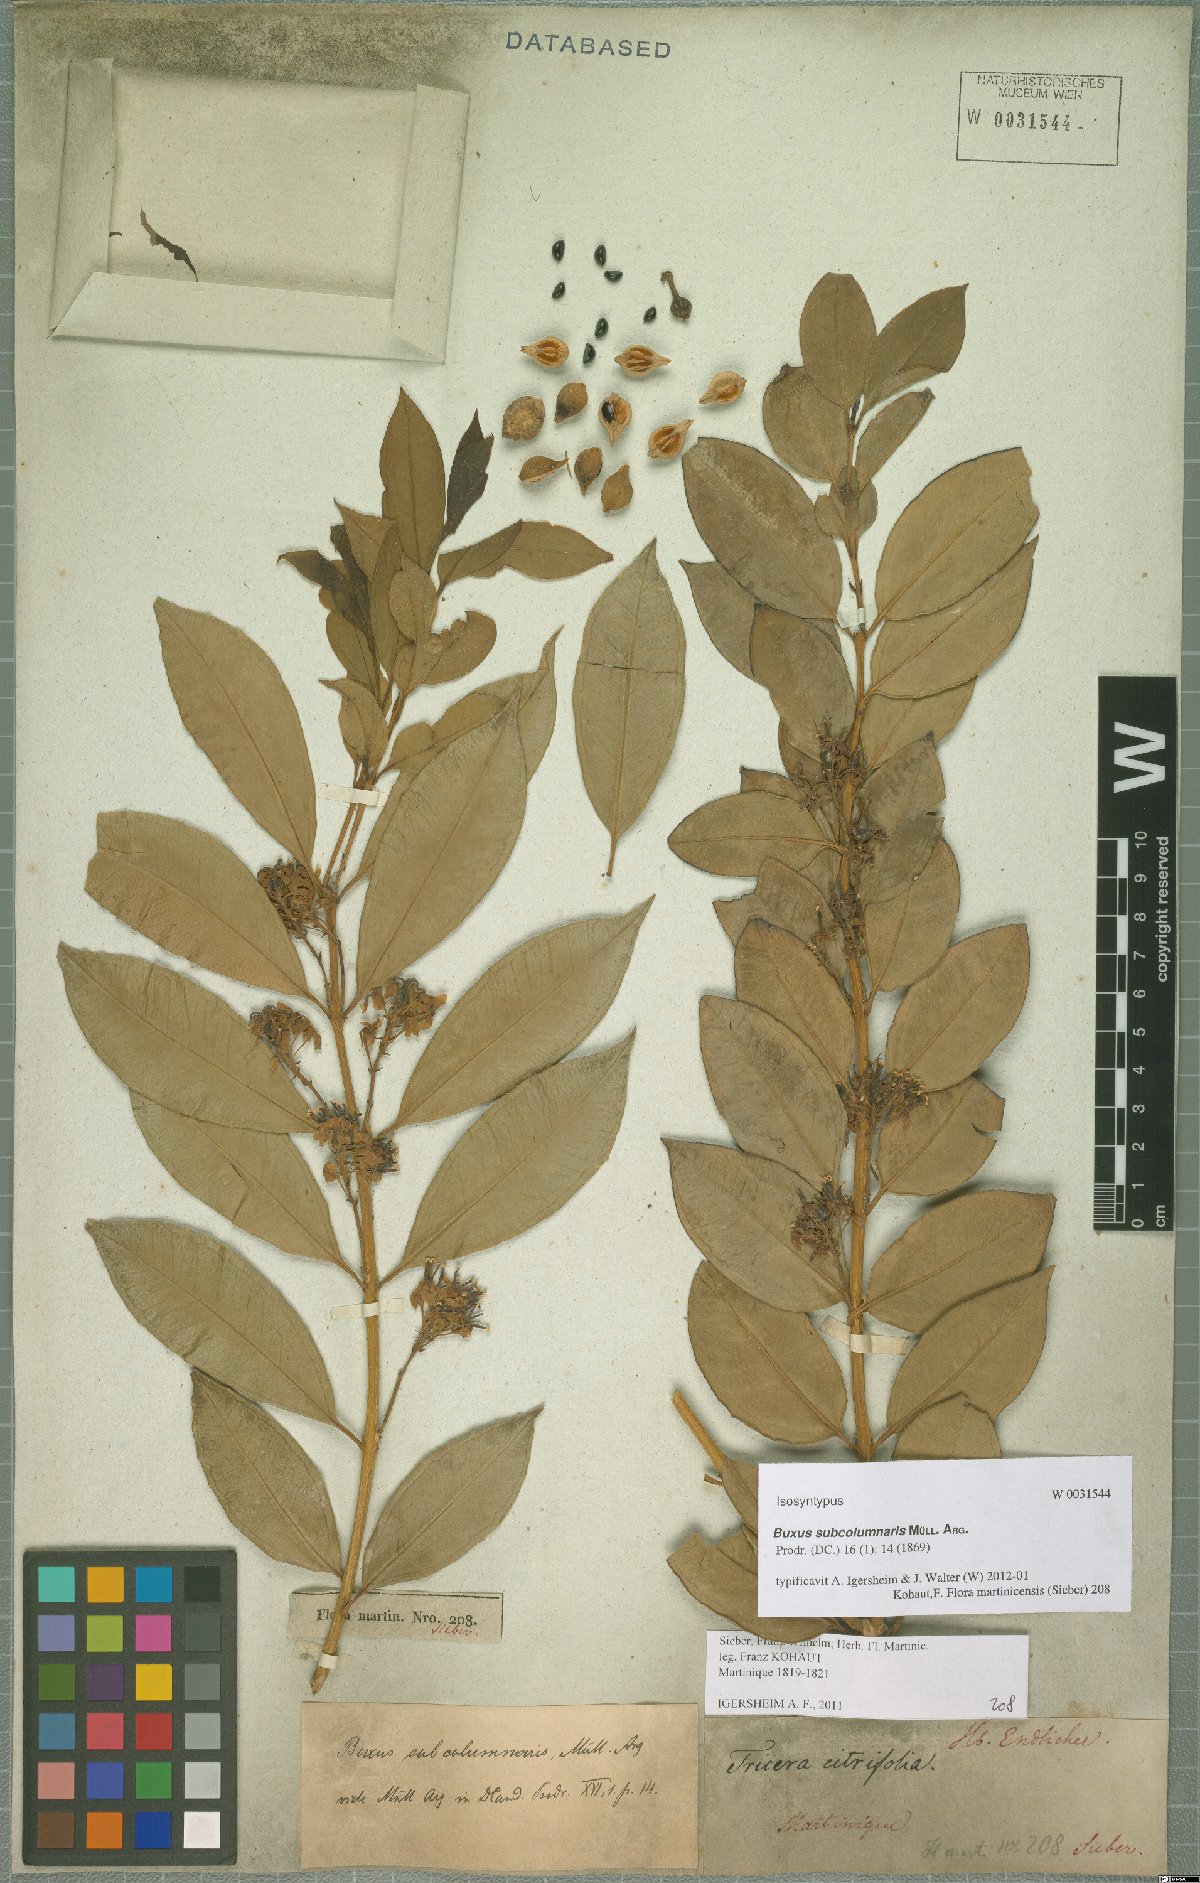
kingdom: Plantae
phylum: Tracheophyta
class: Magnoliopsida
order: Buxales
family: Buxaceae
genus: Buxus
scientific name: Buxus subcolumnaris
